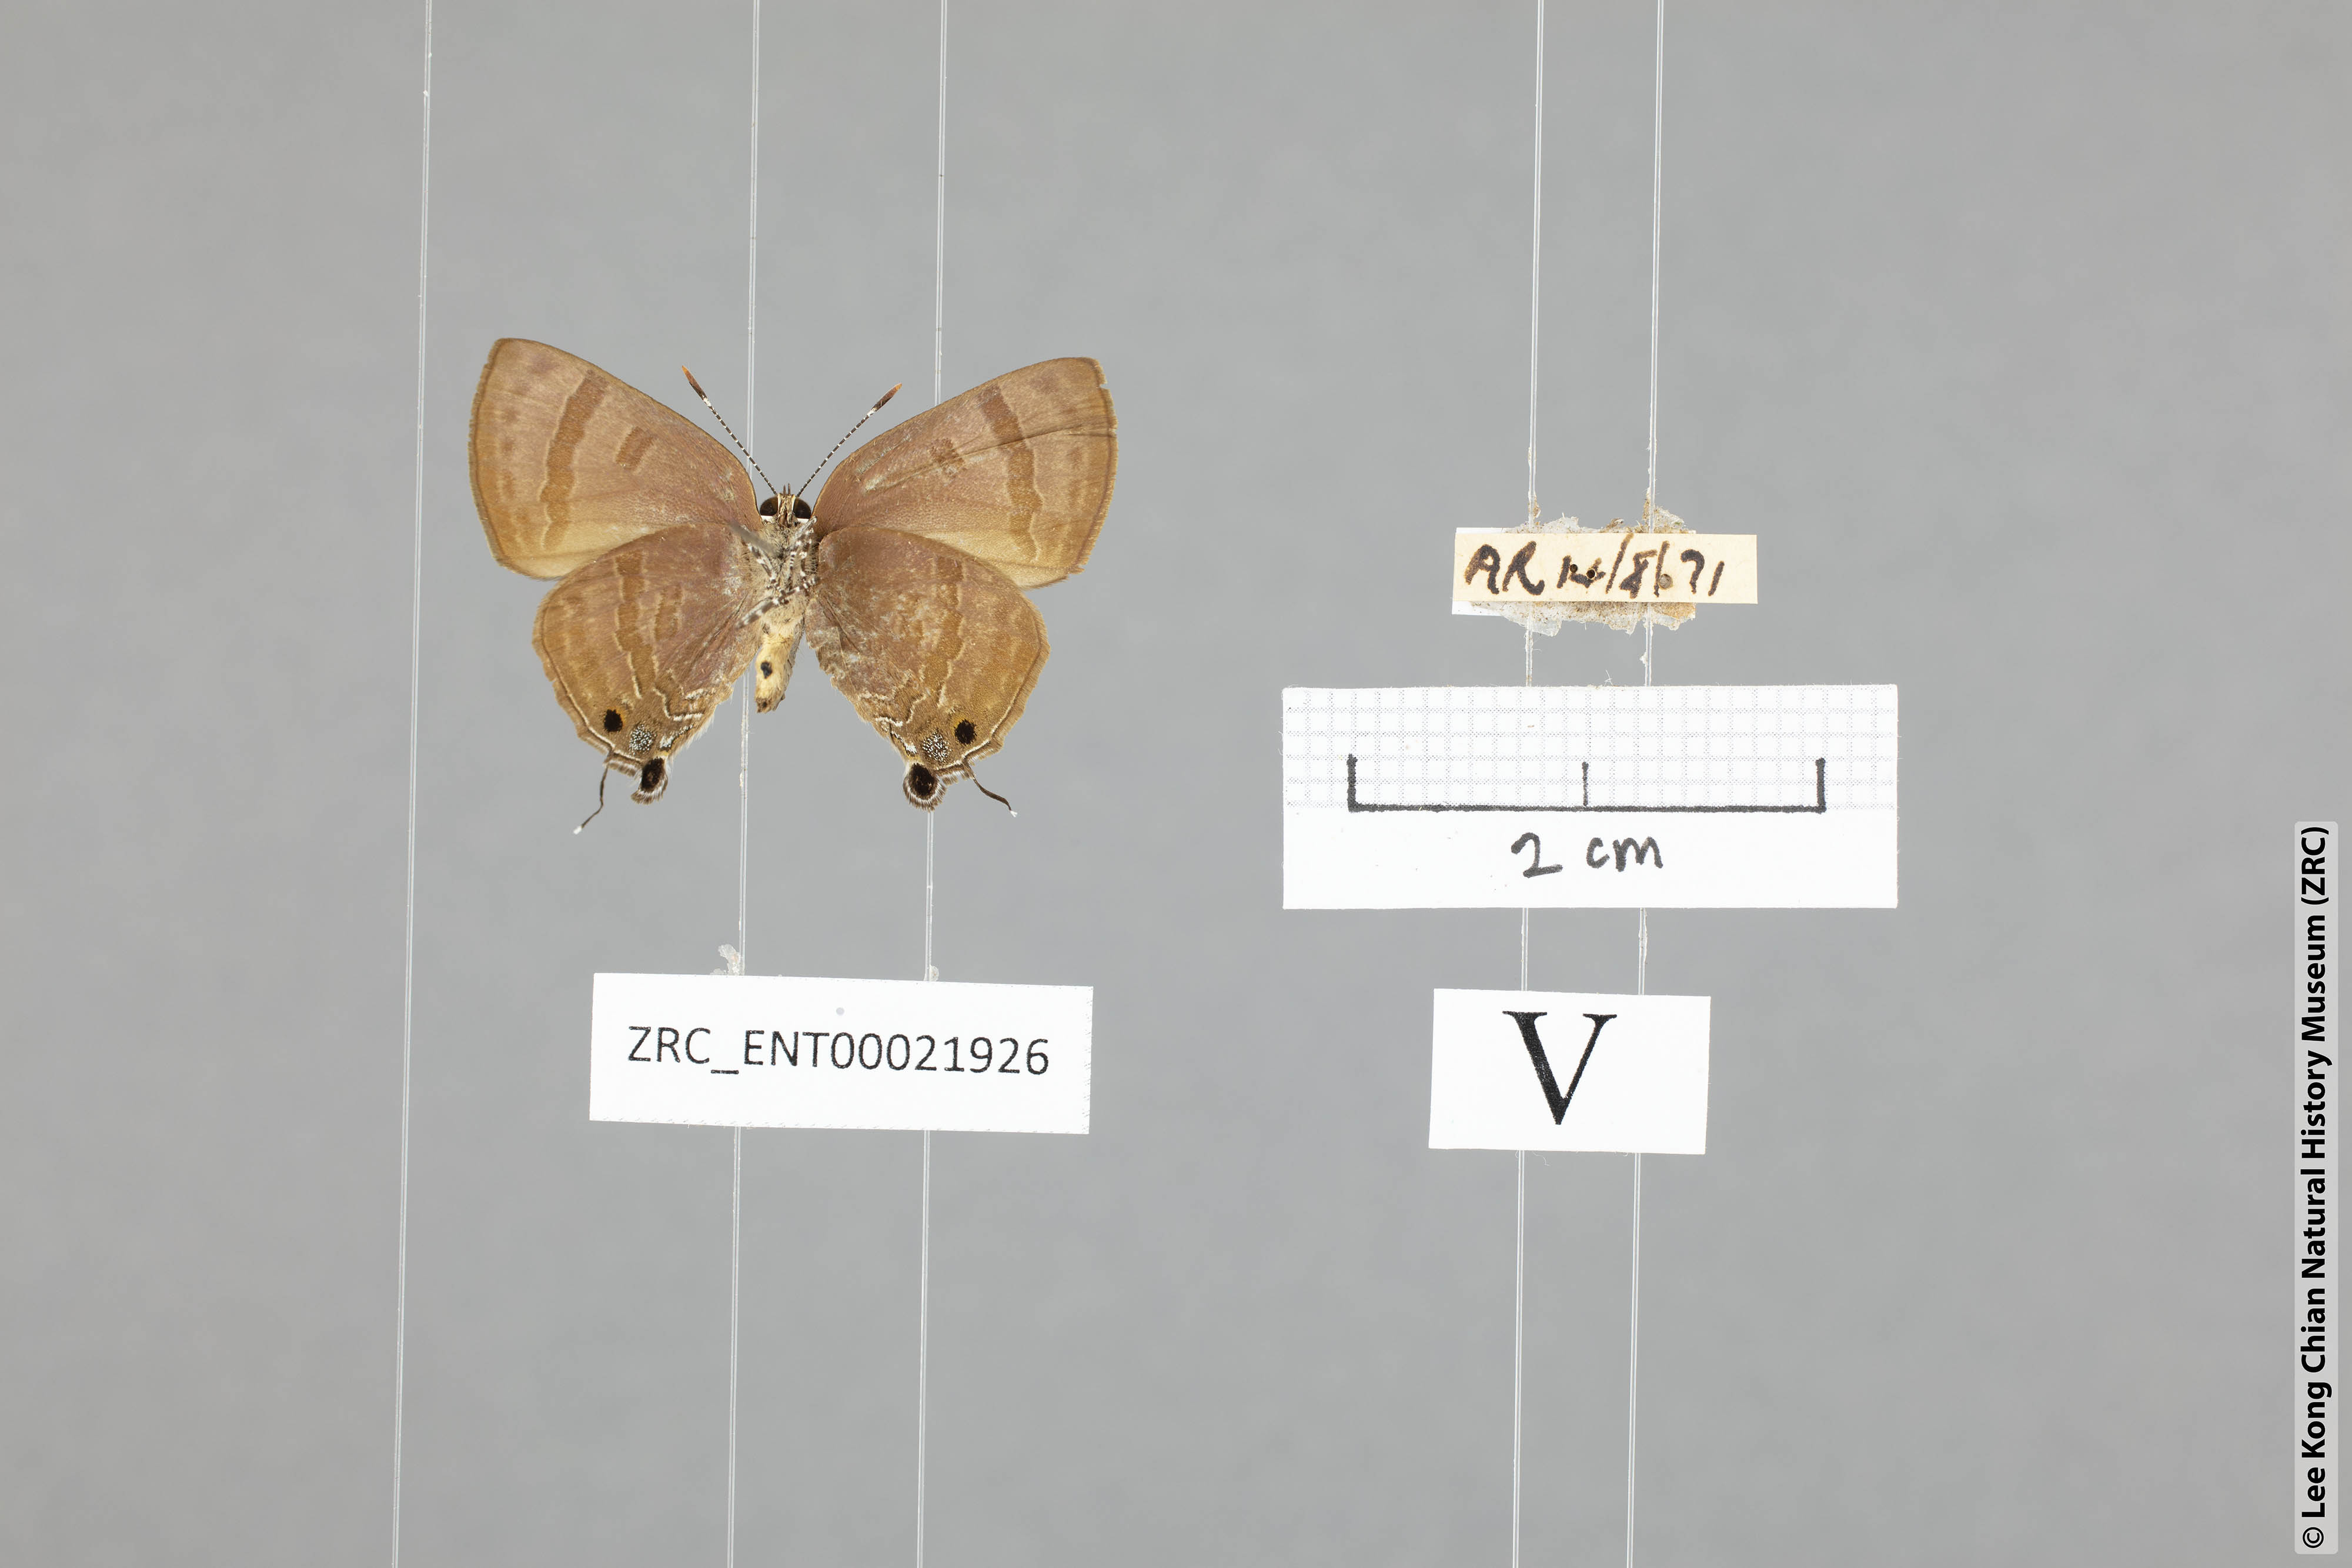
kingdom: Animalia
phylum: Arthropoda
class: Insecta
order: Lepidoptera
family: Lycaenidae
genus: Rapala
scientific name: Rapala varuna
